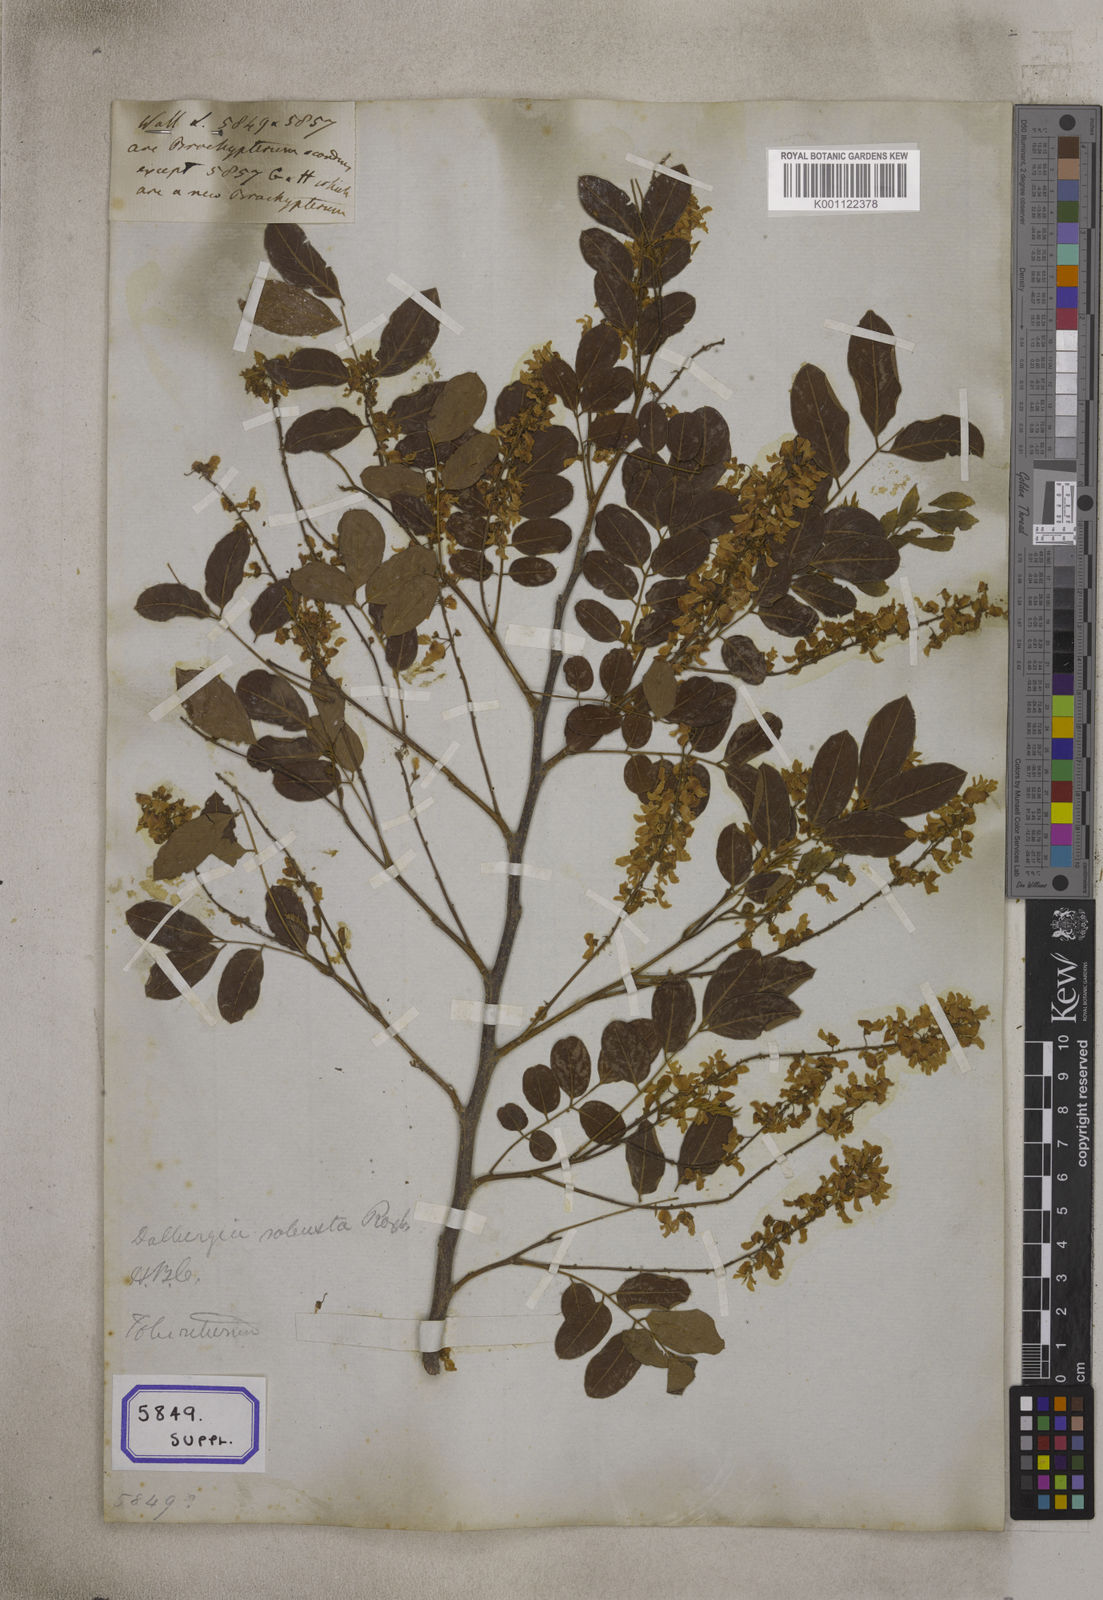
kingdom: Plantae
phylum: Tracheophyta
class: Magnoliopsida
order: Fabales
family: Fabaceae
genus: Dalbergia
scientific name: Dalbergia
